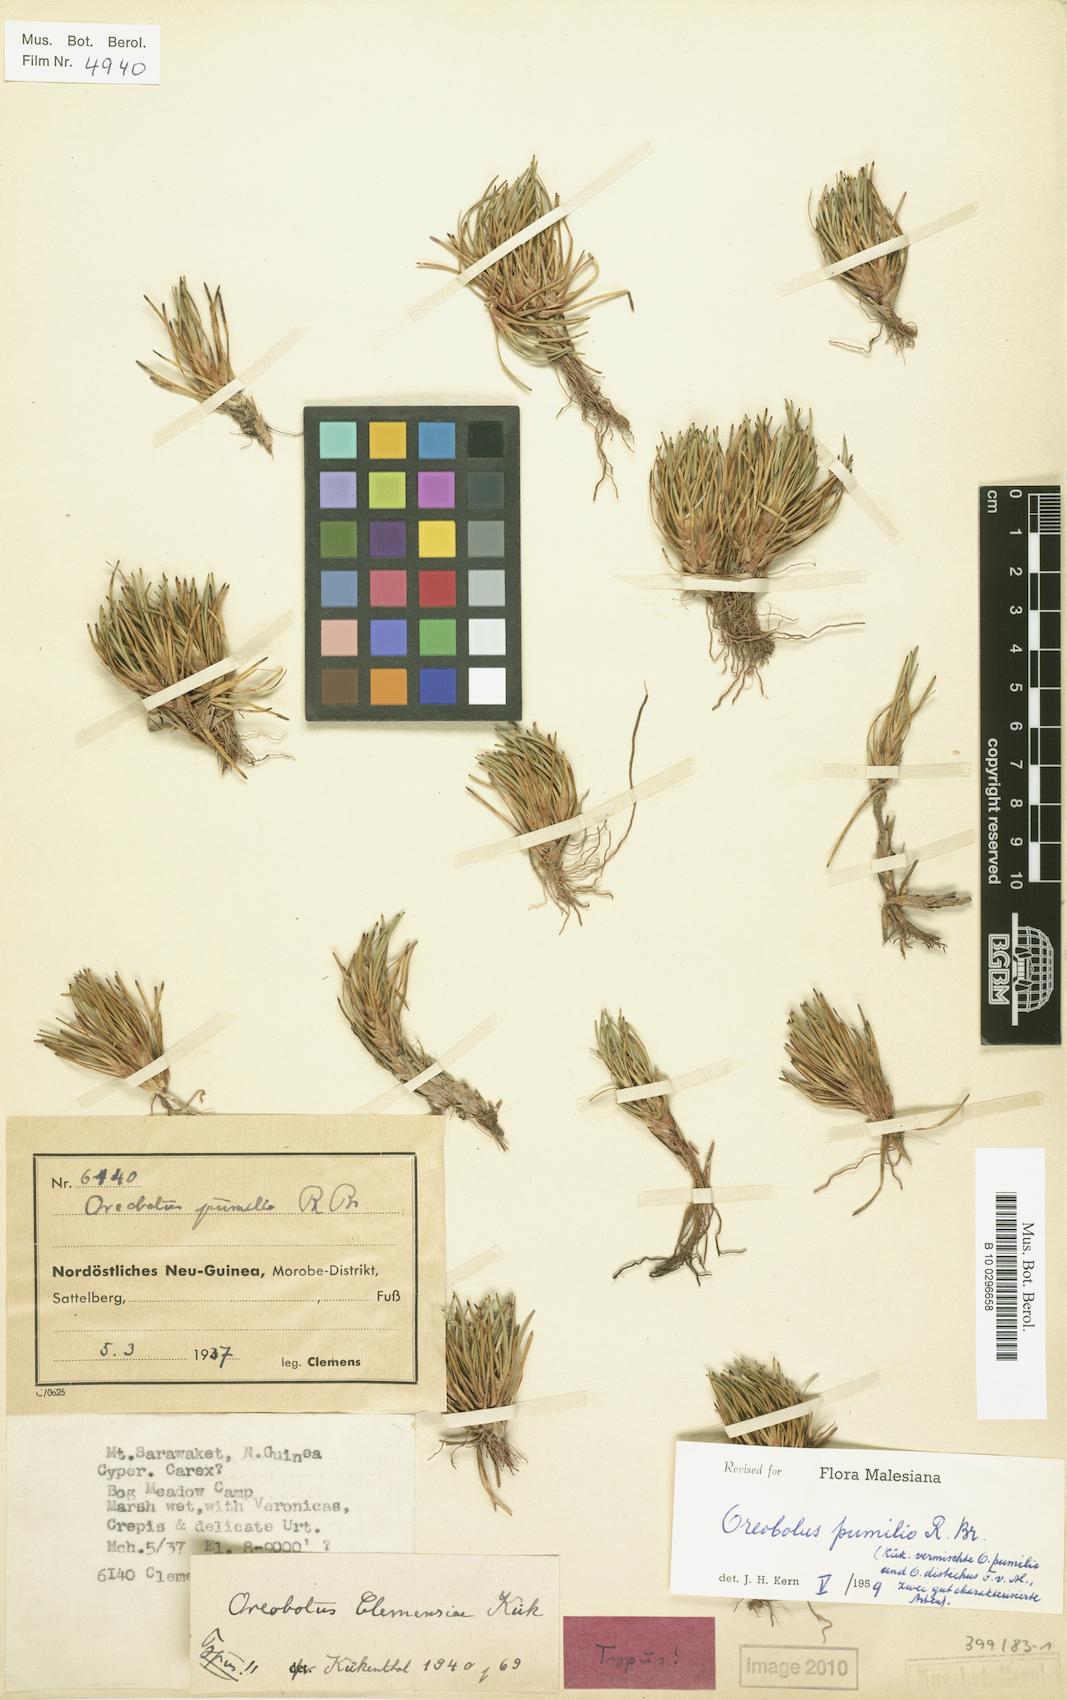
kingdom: Plantae
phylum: Tracheophyta
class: Liliopsida
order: Poales
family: Cyperaceae
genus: Oreobolus
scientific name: Oreobolus pumilio
